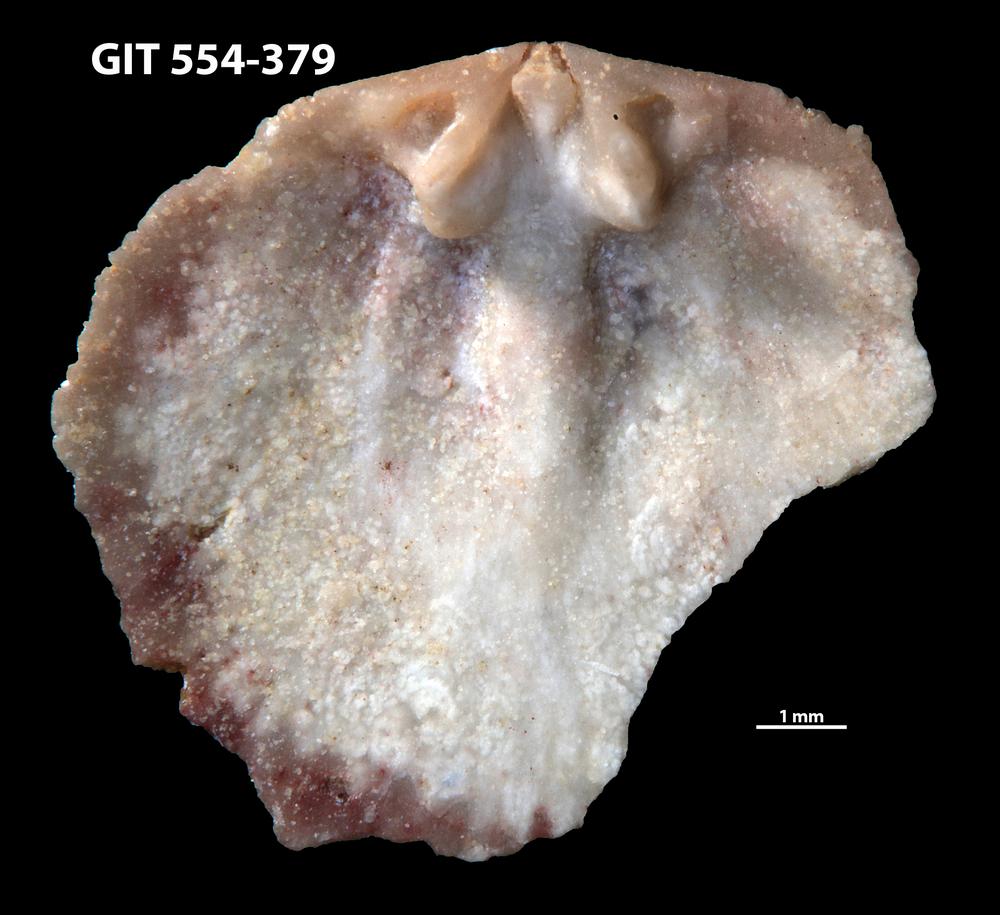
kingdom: Animalia
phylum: Brachiopoda
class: Rhynchonellata
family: Dalmanellidae
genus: Isorthis
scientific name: Isorthis Onniella mediocra
